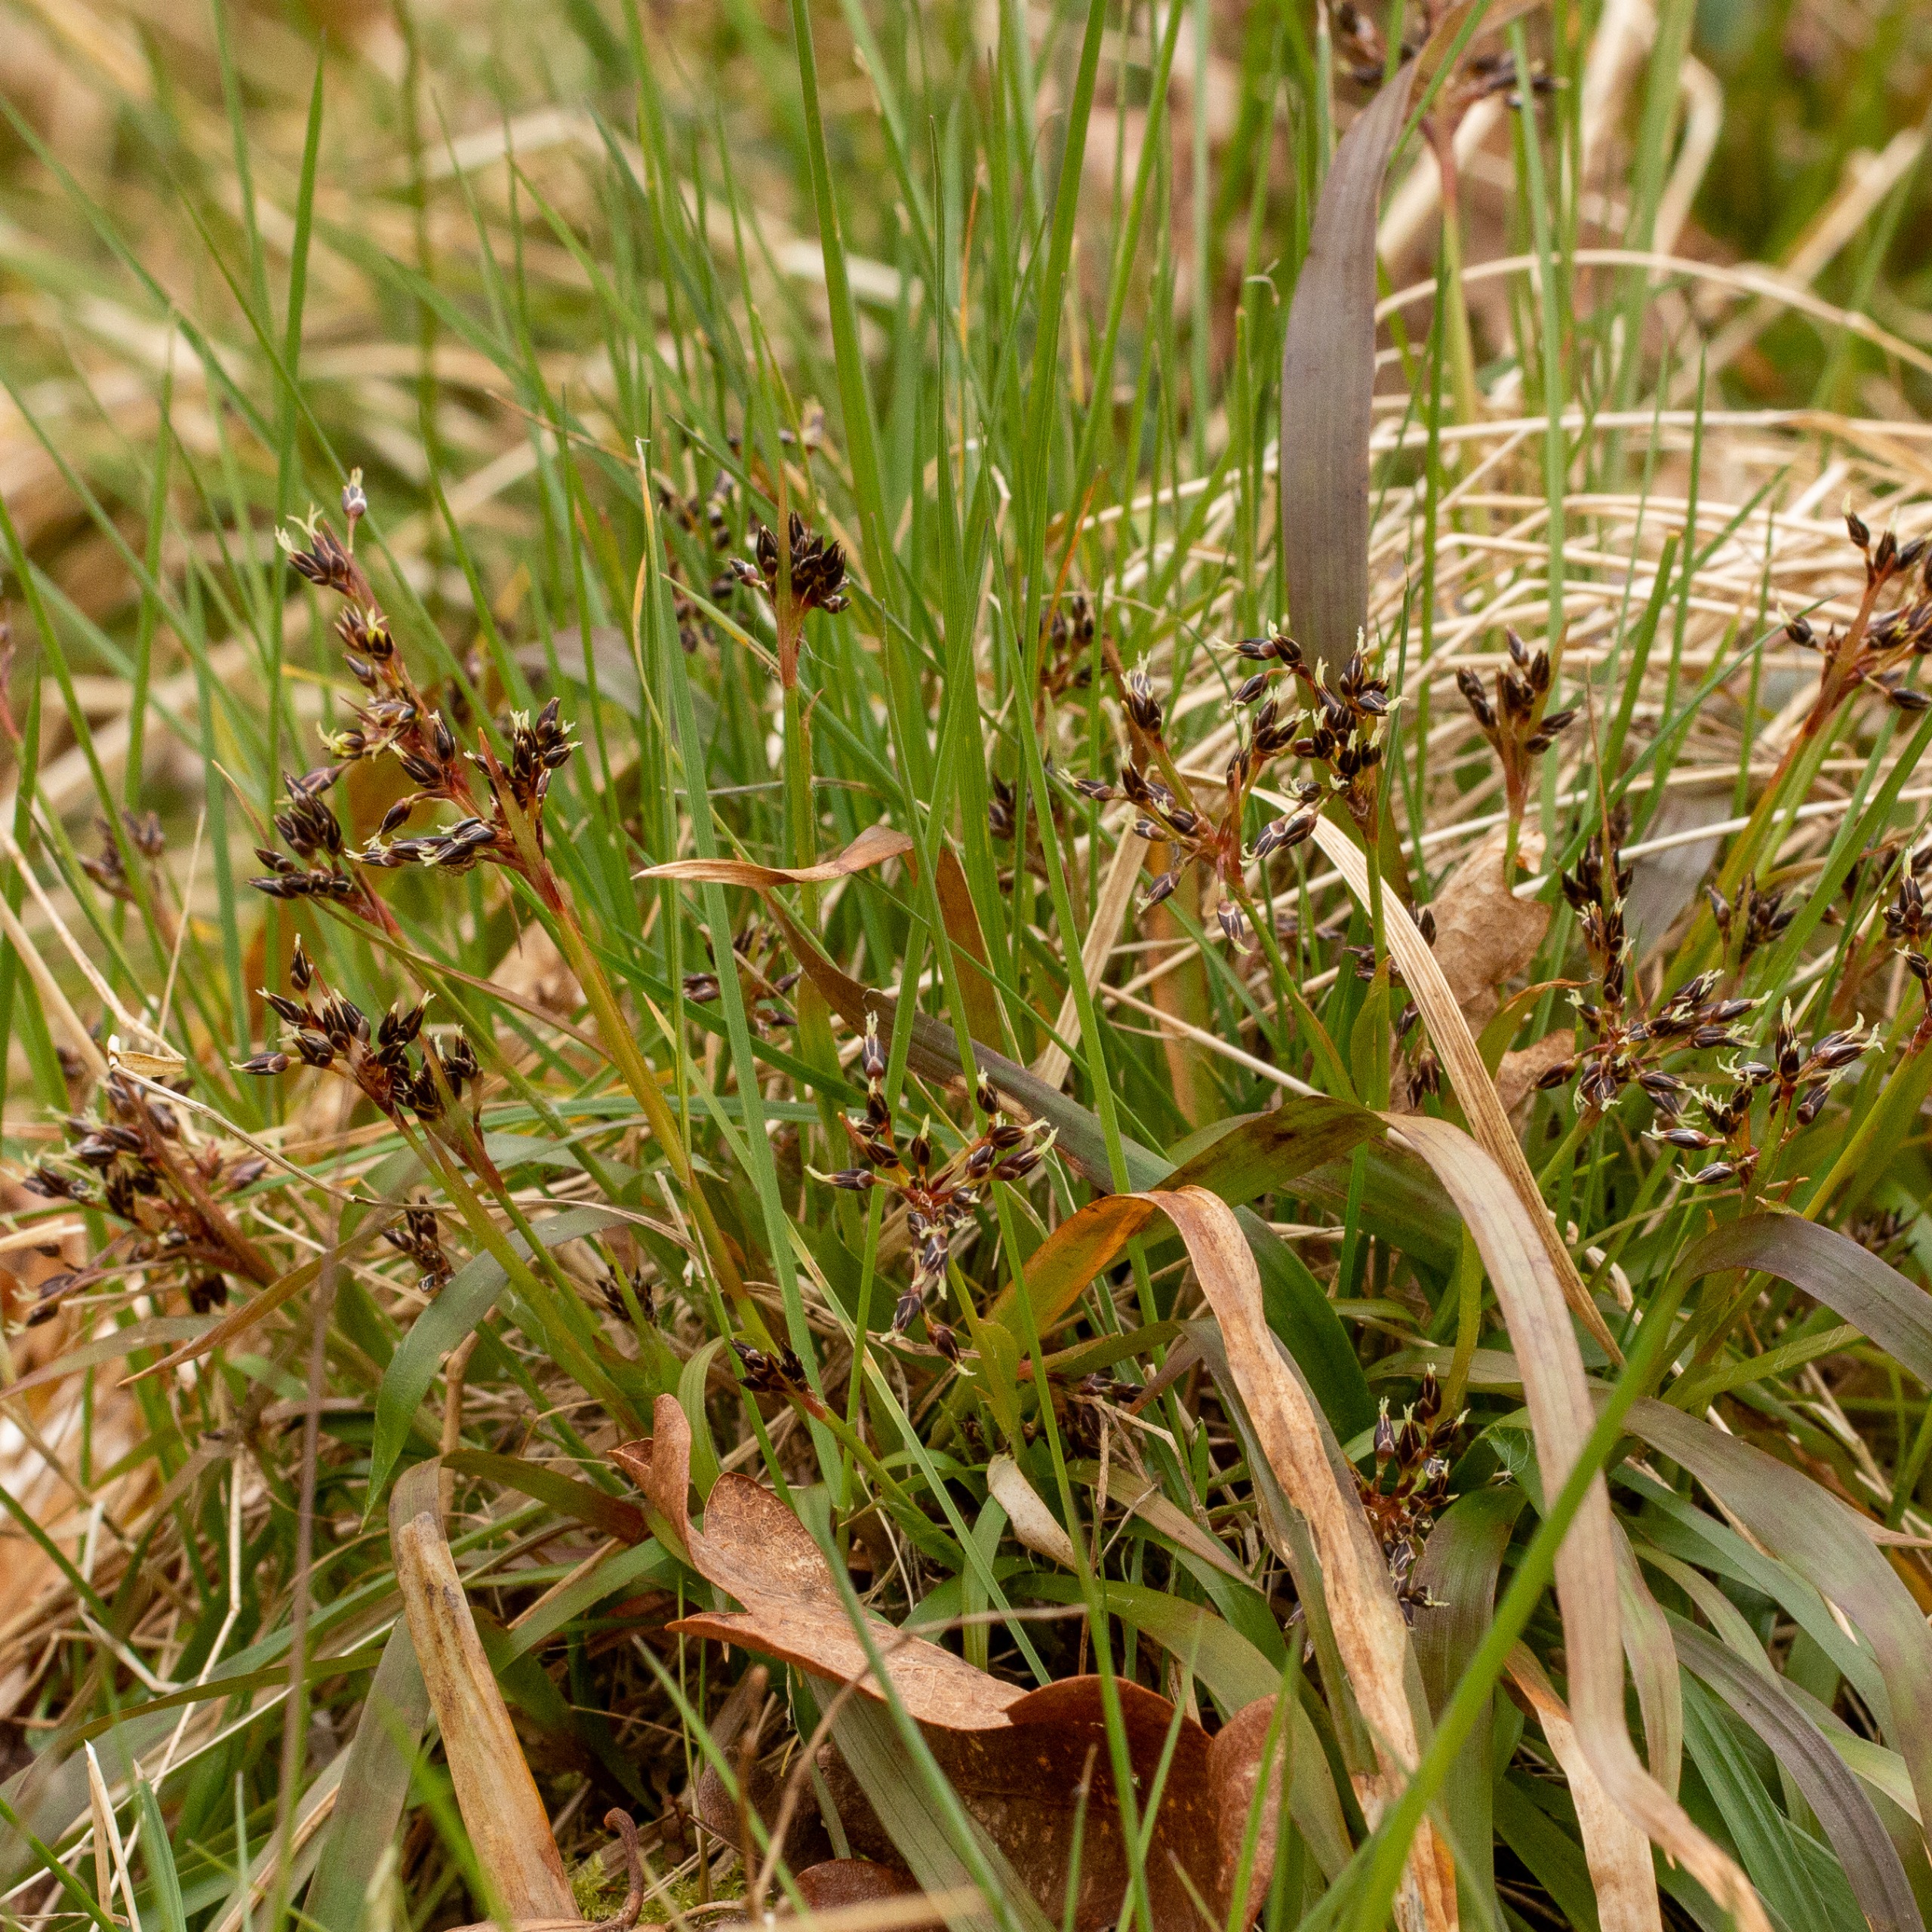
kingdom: Plantae
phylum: Tracheophyta
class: Liliopsida
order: Poales
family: Juncaceae
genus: Luzula
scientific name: Luzula pilosa
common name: Håret frytle
